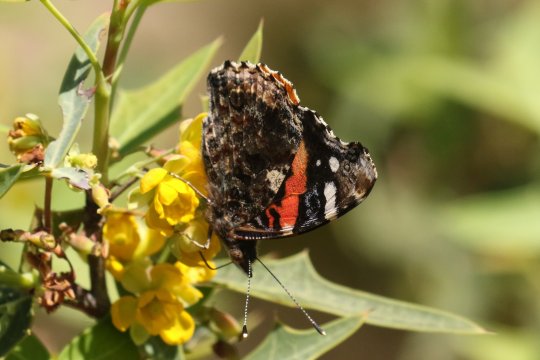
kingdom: Animalia
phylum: Arthropoda
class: Insecta
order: Lepidoptera
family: Nymphalidae
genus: Vanessa
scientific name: Vanessa atalanta
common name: Red Admiral
